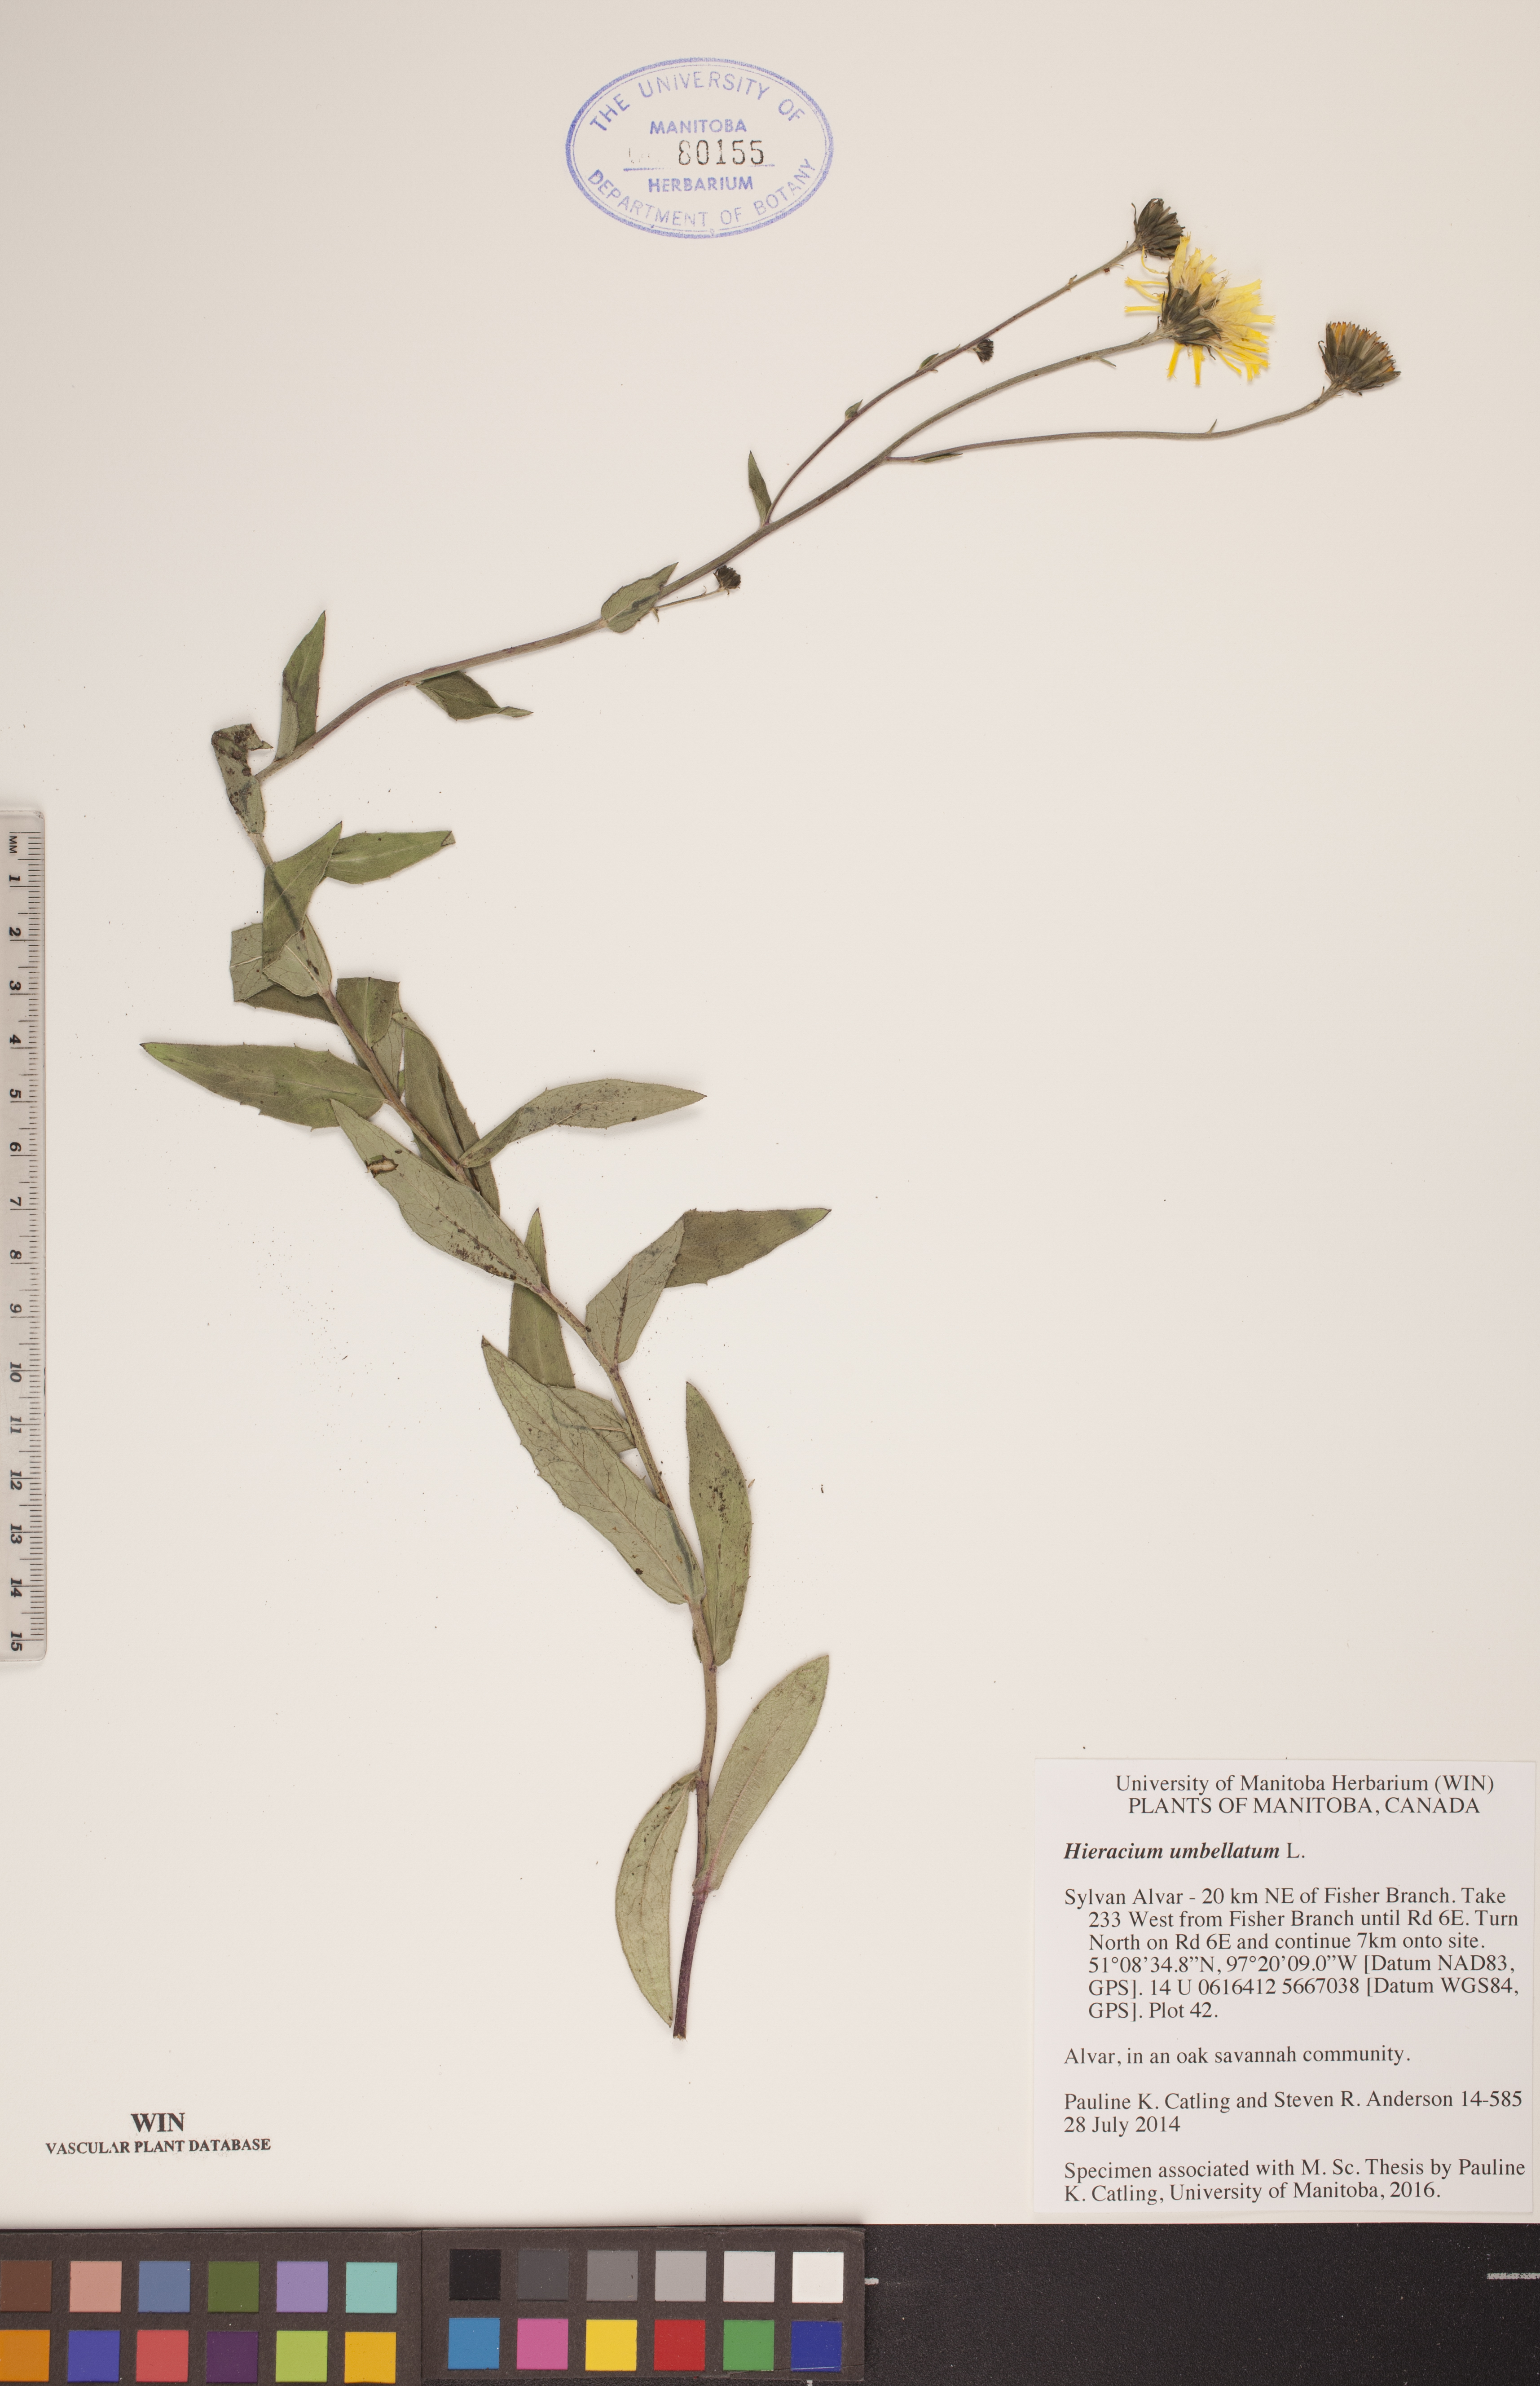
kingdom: Plantae
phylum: Tracheophyta
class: Magnoliopsida
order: Asterales
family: Asteraceae
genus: Hieracium
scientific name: Hieracium umbellatum
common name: Northern hawkweed
